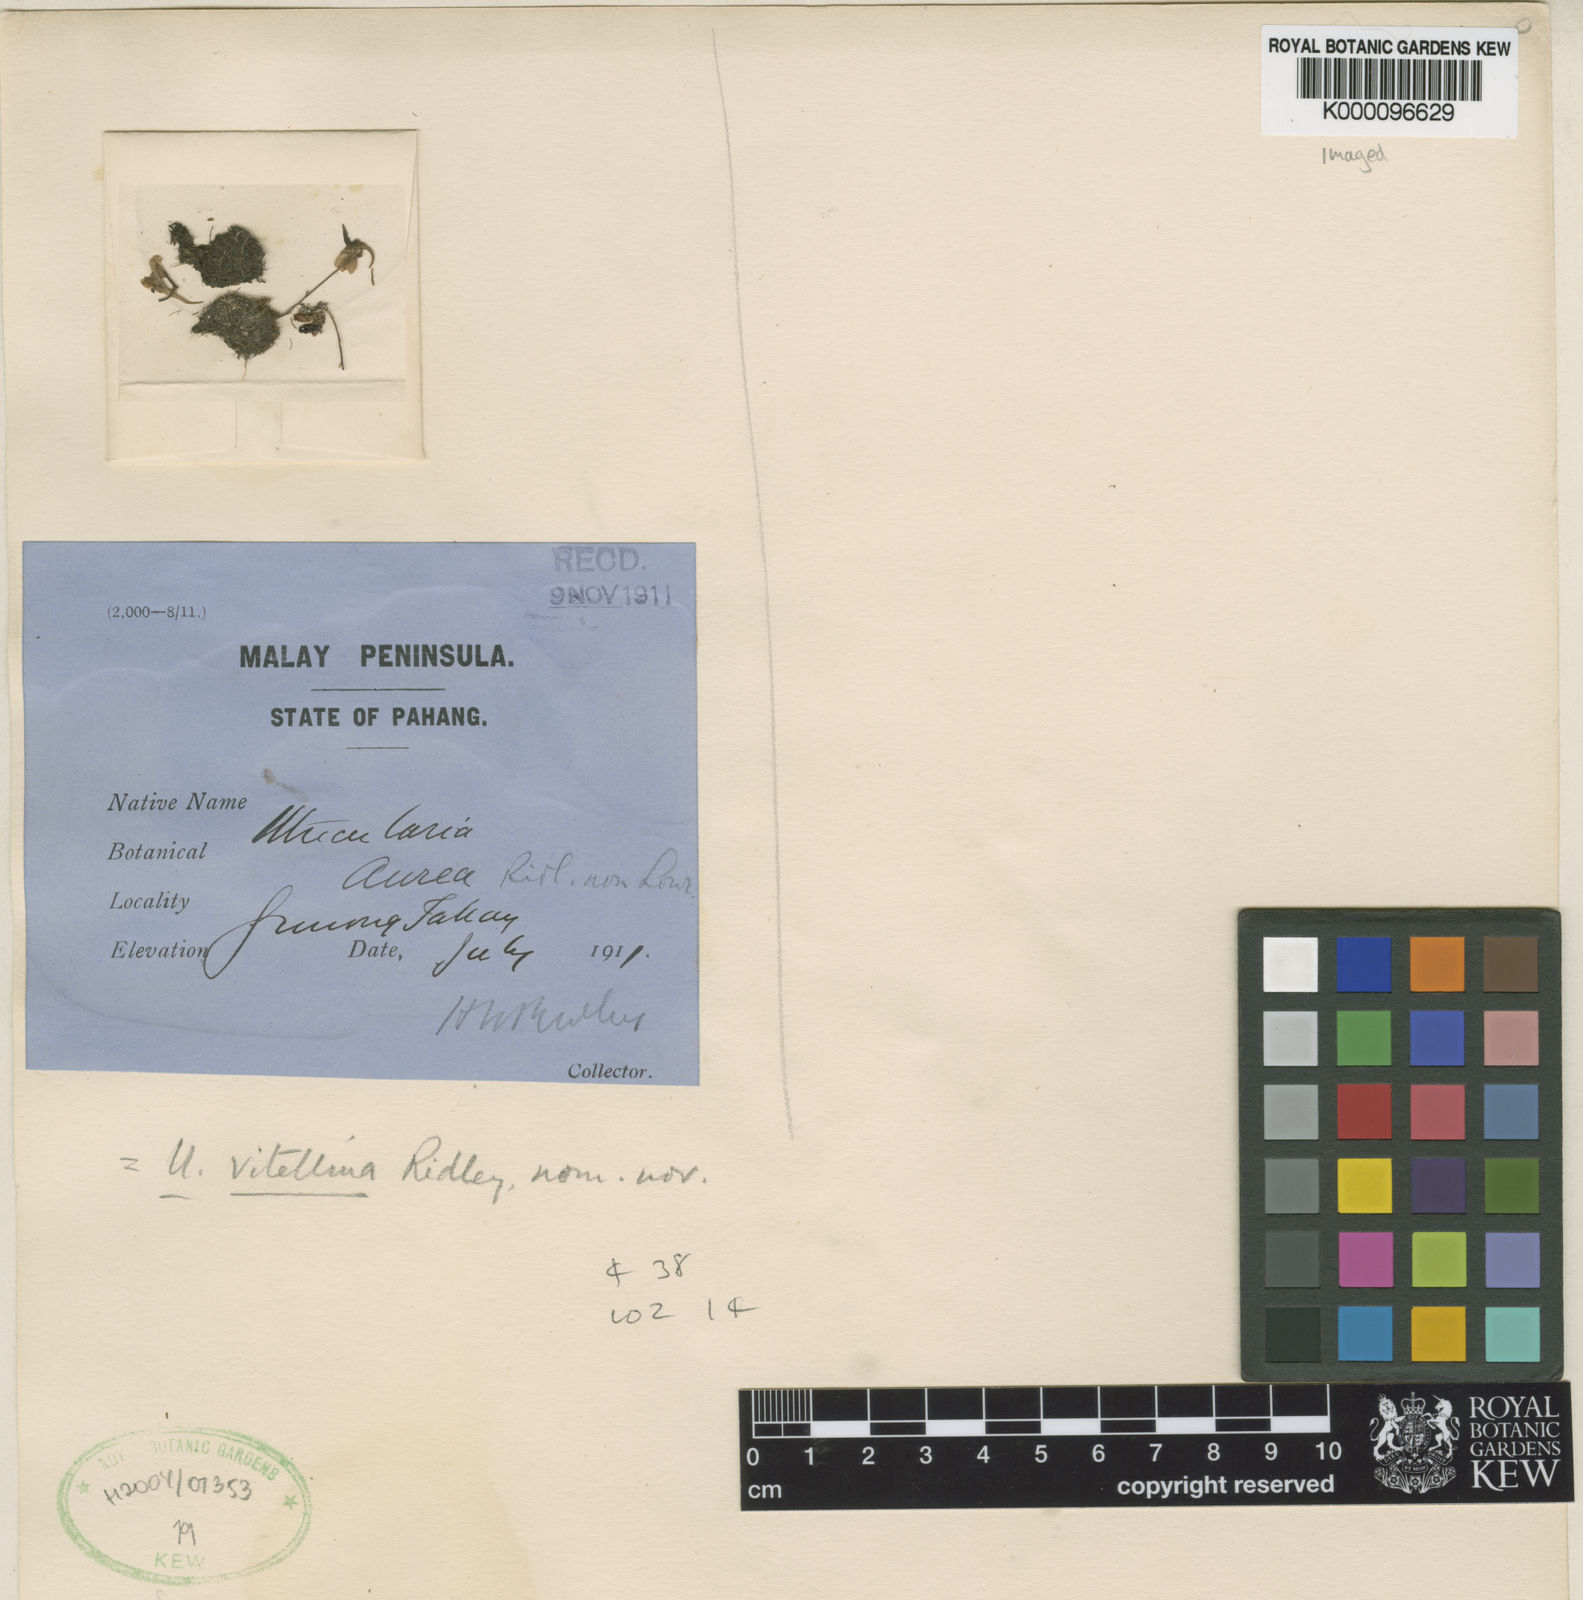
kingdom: Plantae
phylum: Tracheophyta
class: Magnoliopsida
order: Lamiales
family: Lentibulariaceae
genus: Utricularia
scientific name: Utricularia vitellina
